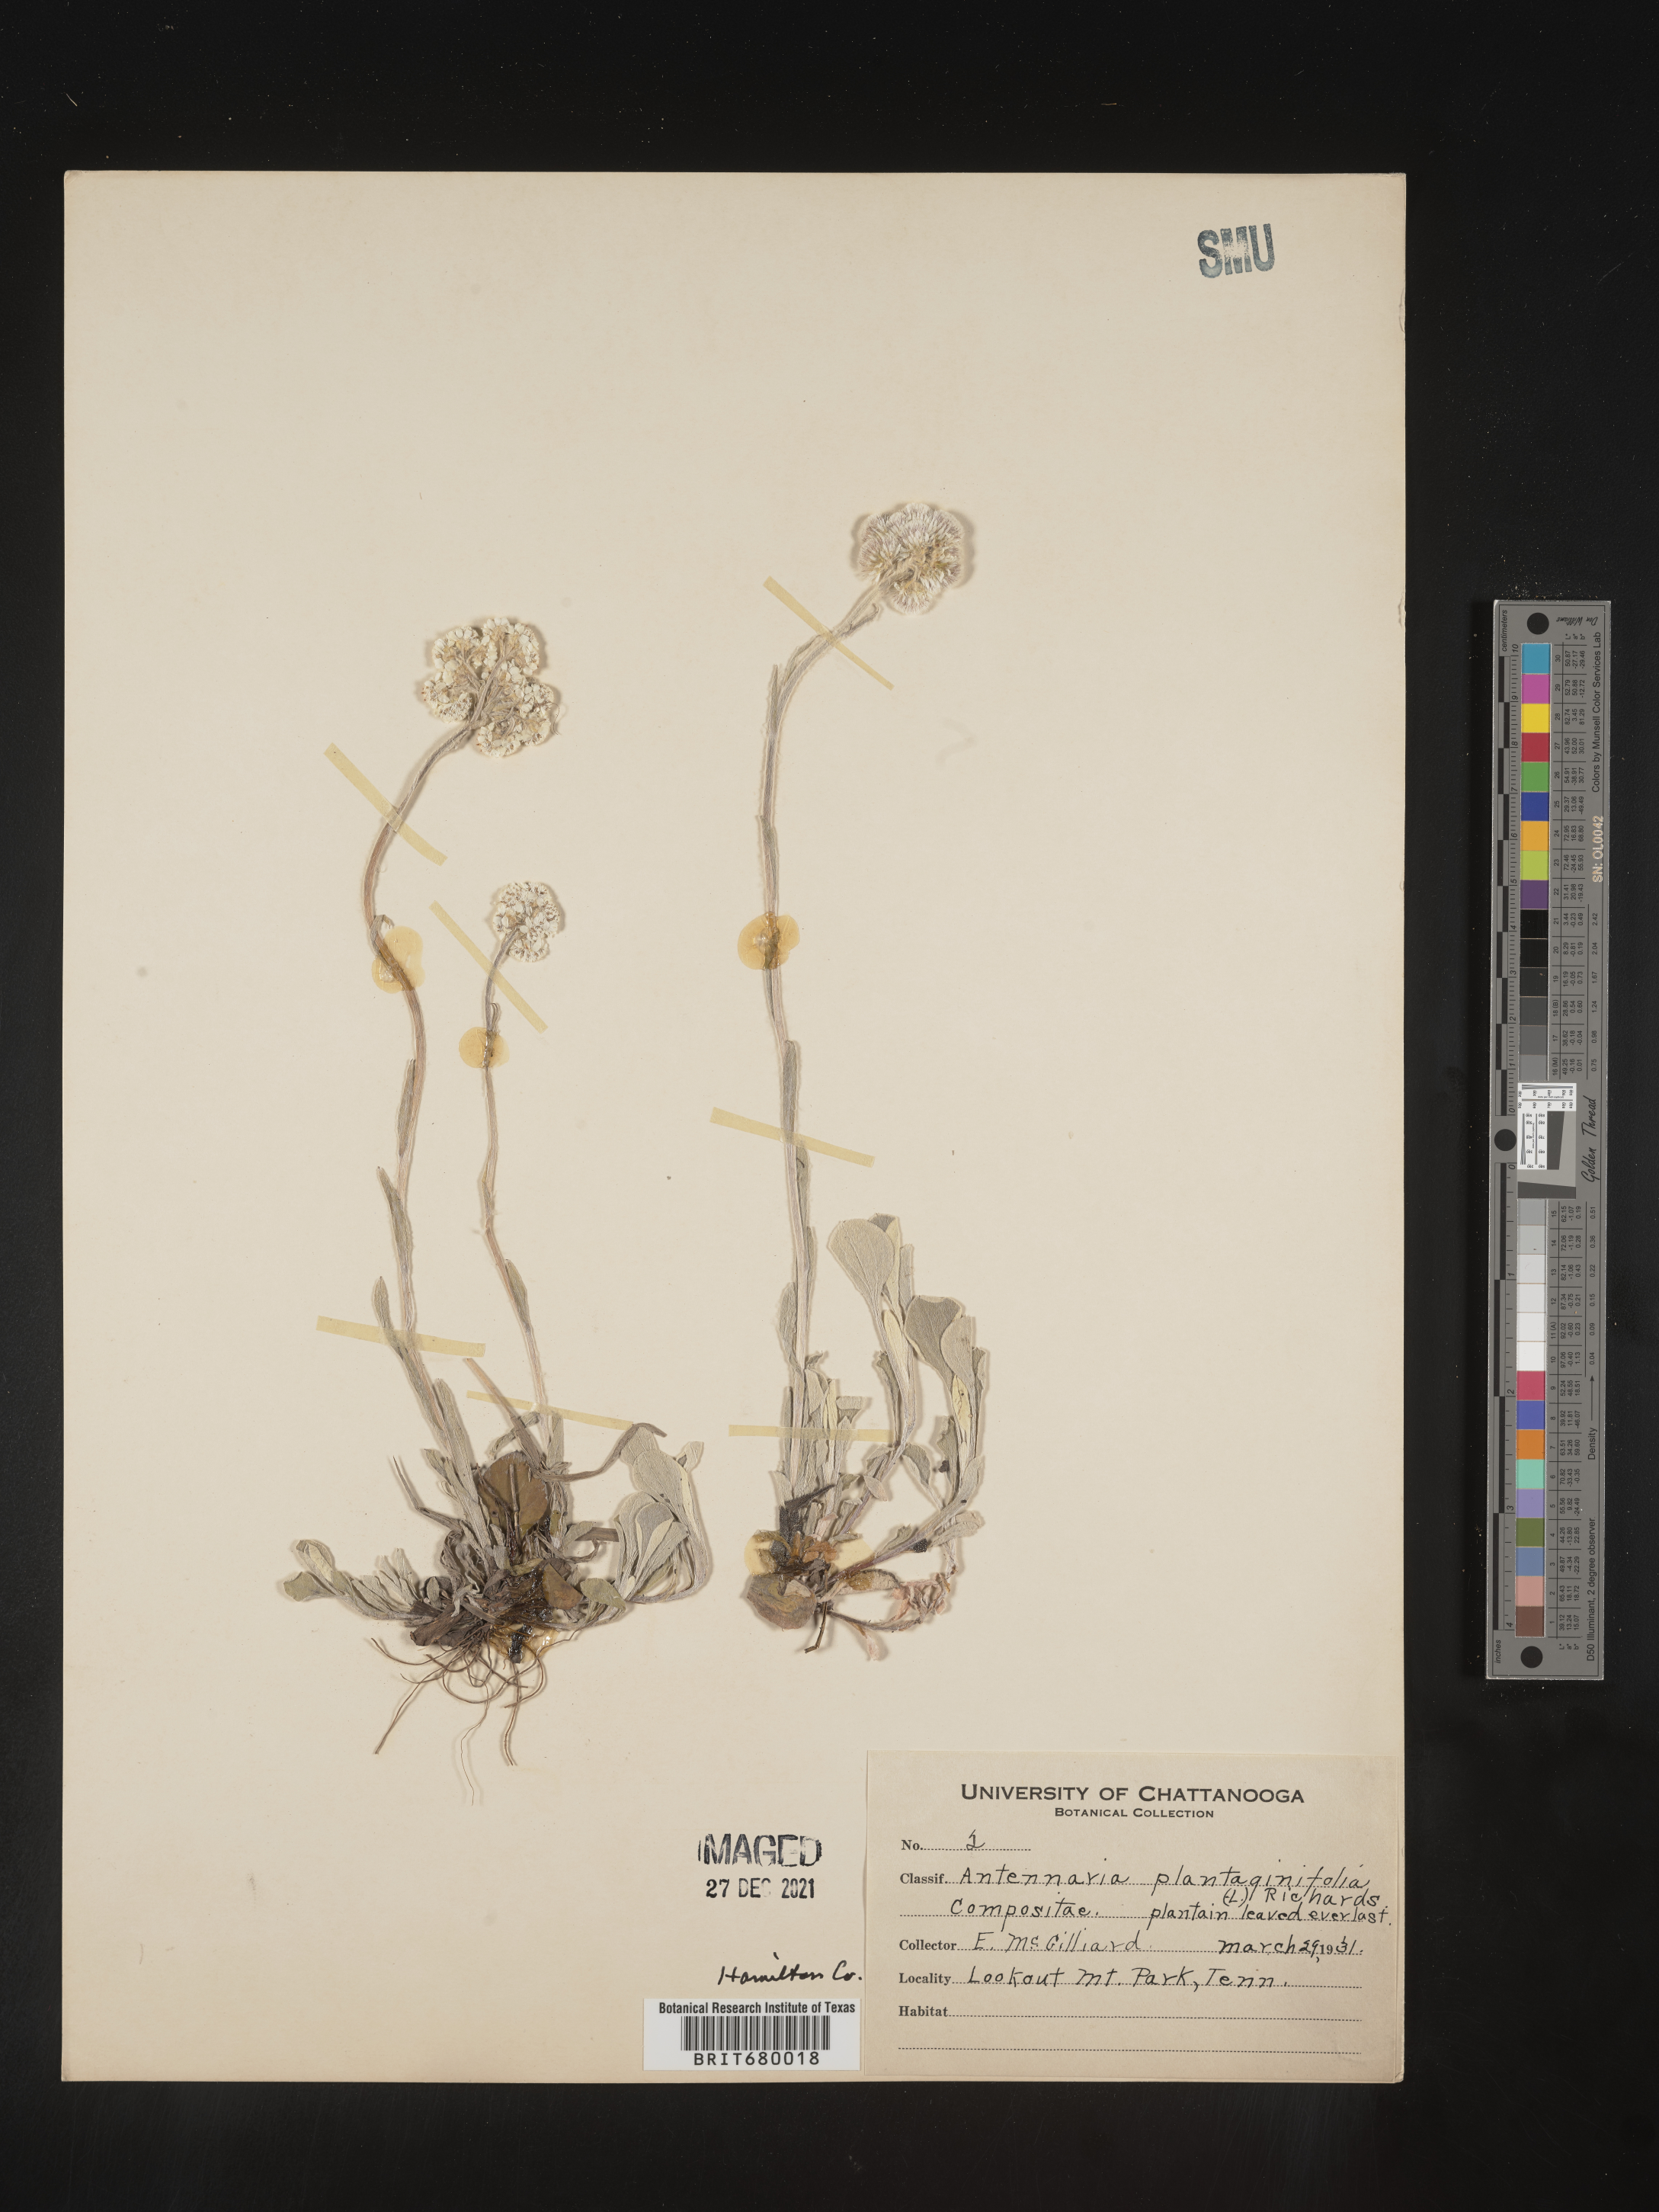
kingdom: Plantae
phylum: Tracheophyta
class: Magnoliopsida
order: Asterales
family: Asteraceae
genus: Antennaria
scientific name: Antennaria plantaginifolia
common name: Plantain-leaved pussytoes
